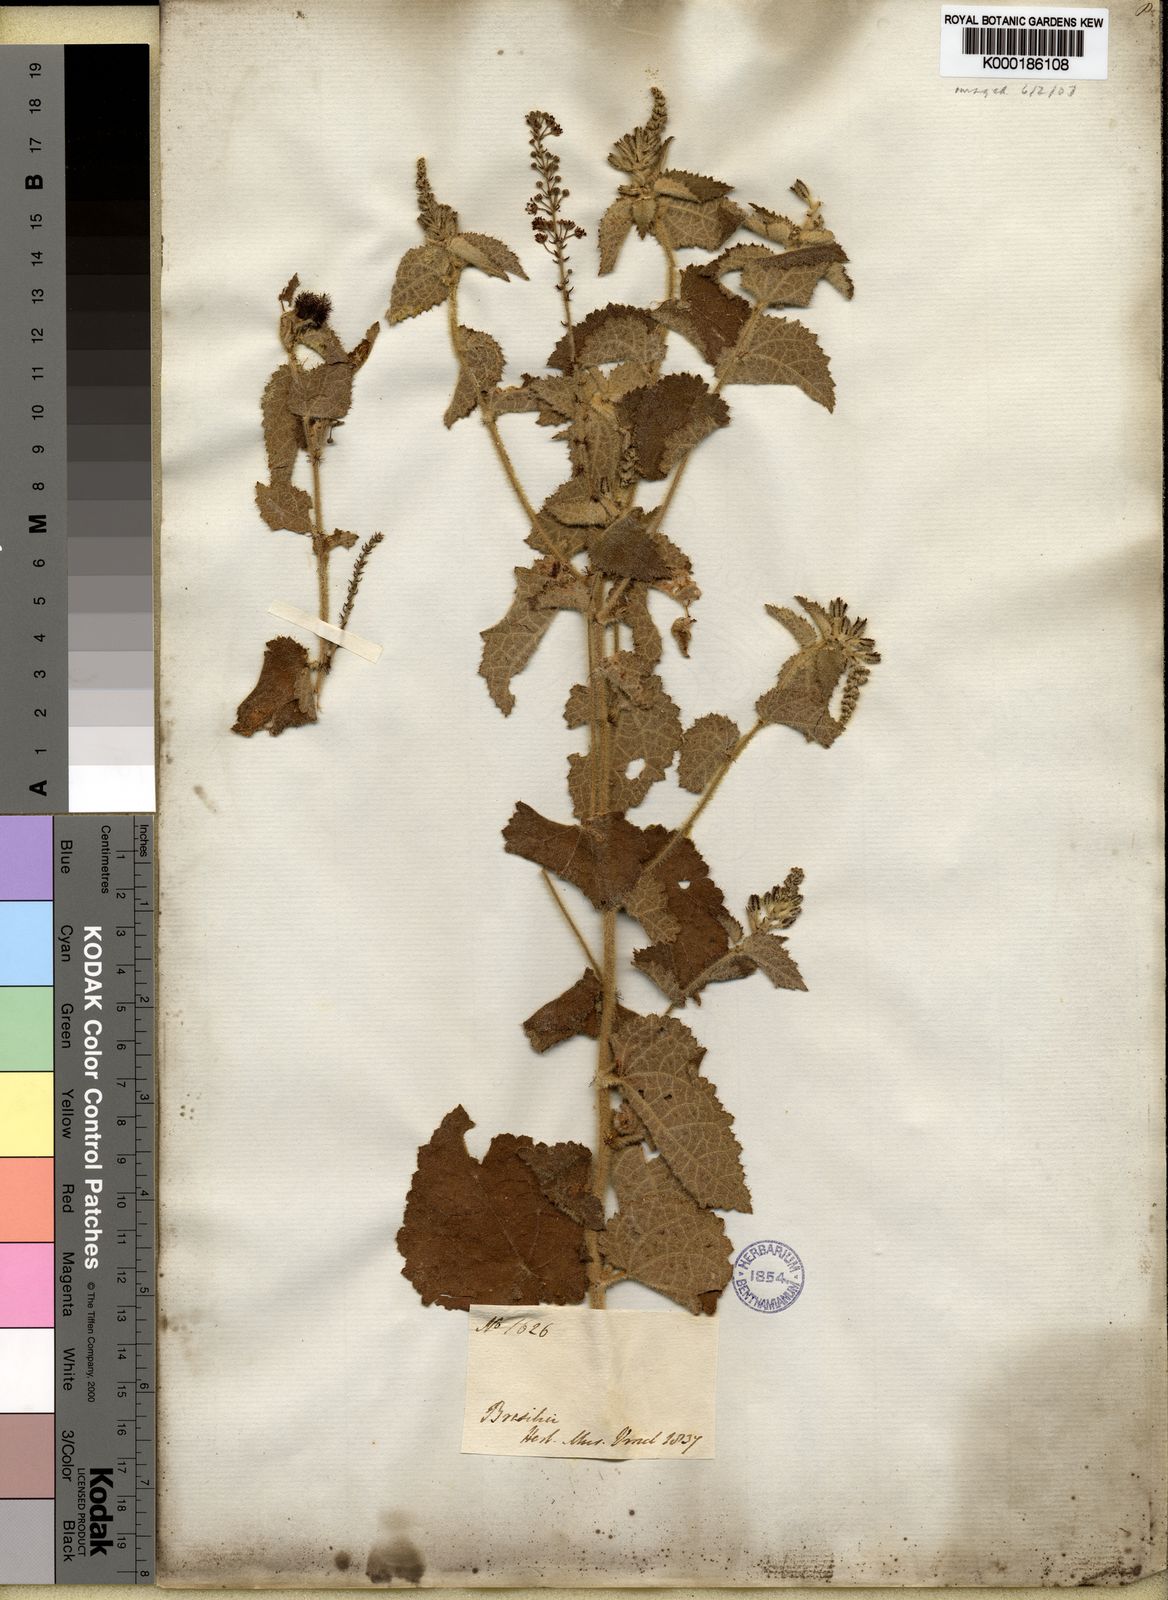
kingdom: Plantae
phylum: Tracheophyta
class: Magnoliopsida
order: Malpighiales
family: Euphorbiaceae
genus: Croton
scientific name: Croton
